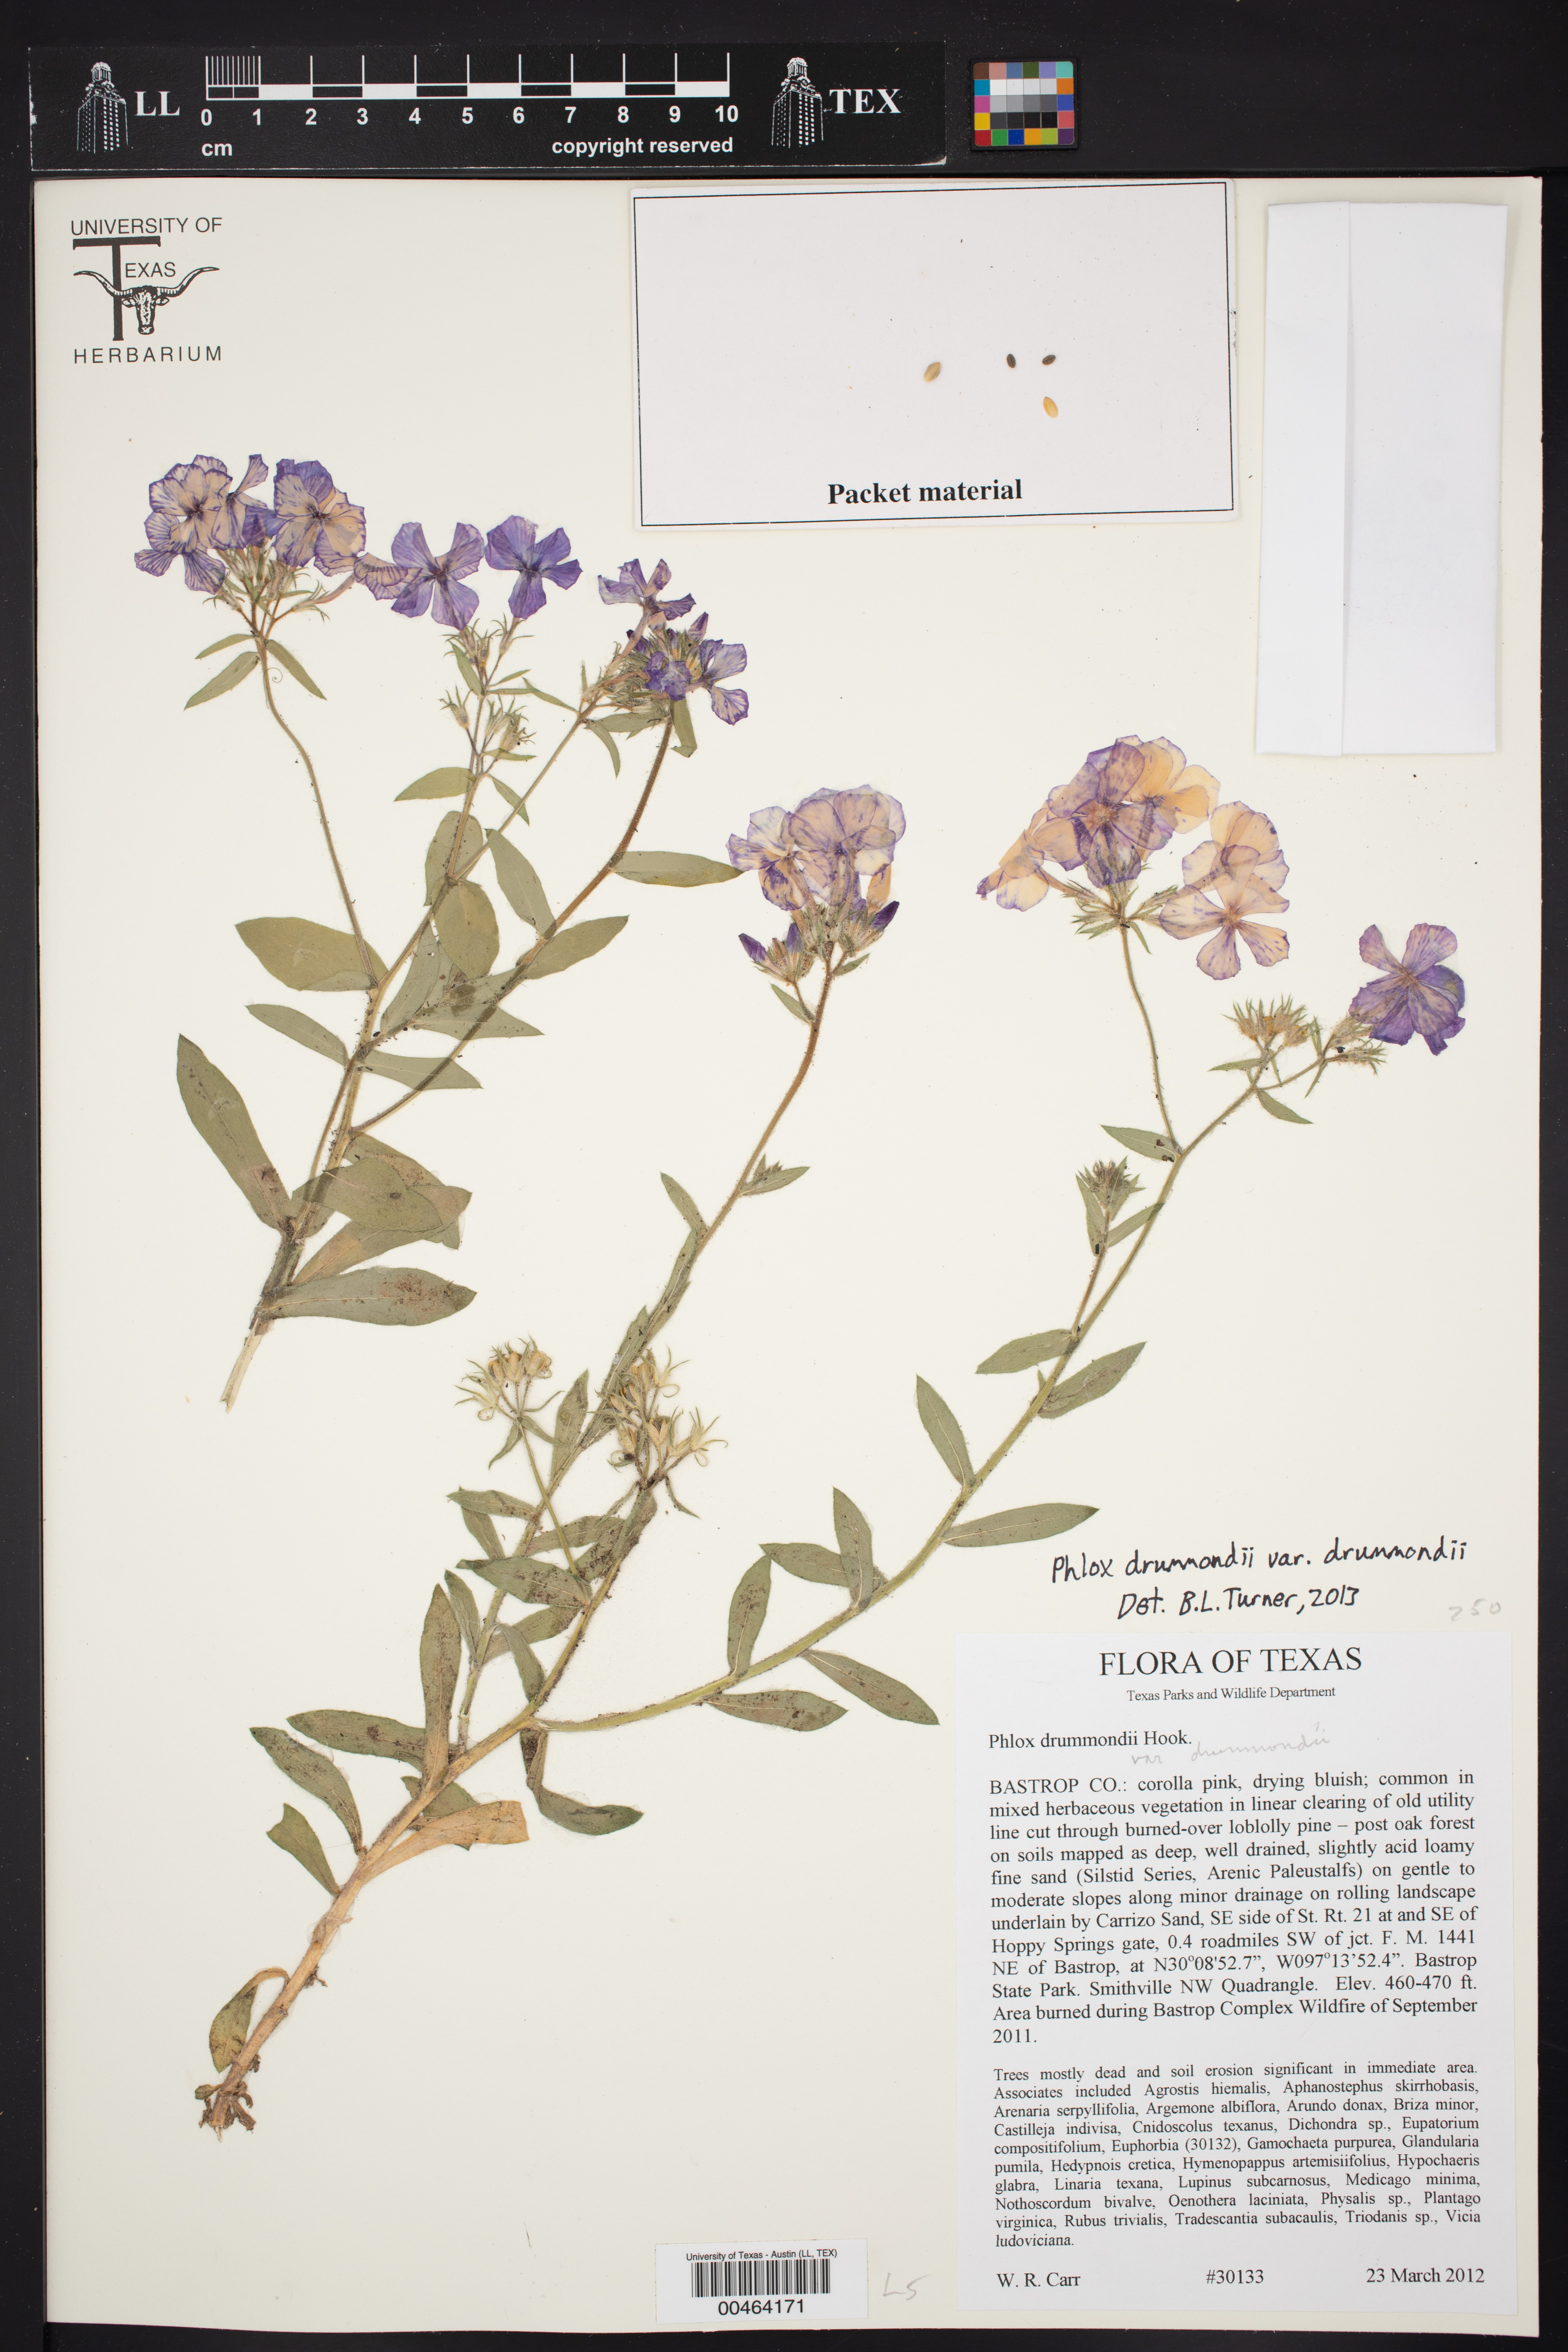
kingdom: Plantae
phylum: Tracheophyta
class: Magnoliopsida
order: Ericales
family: Polemoniaceae
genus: Phlox
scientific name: Phlox drummondii
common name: Drummond's phlox
